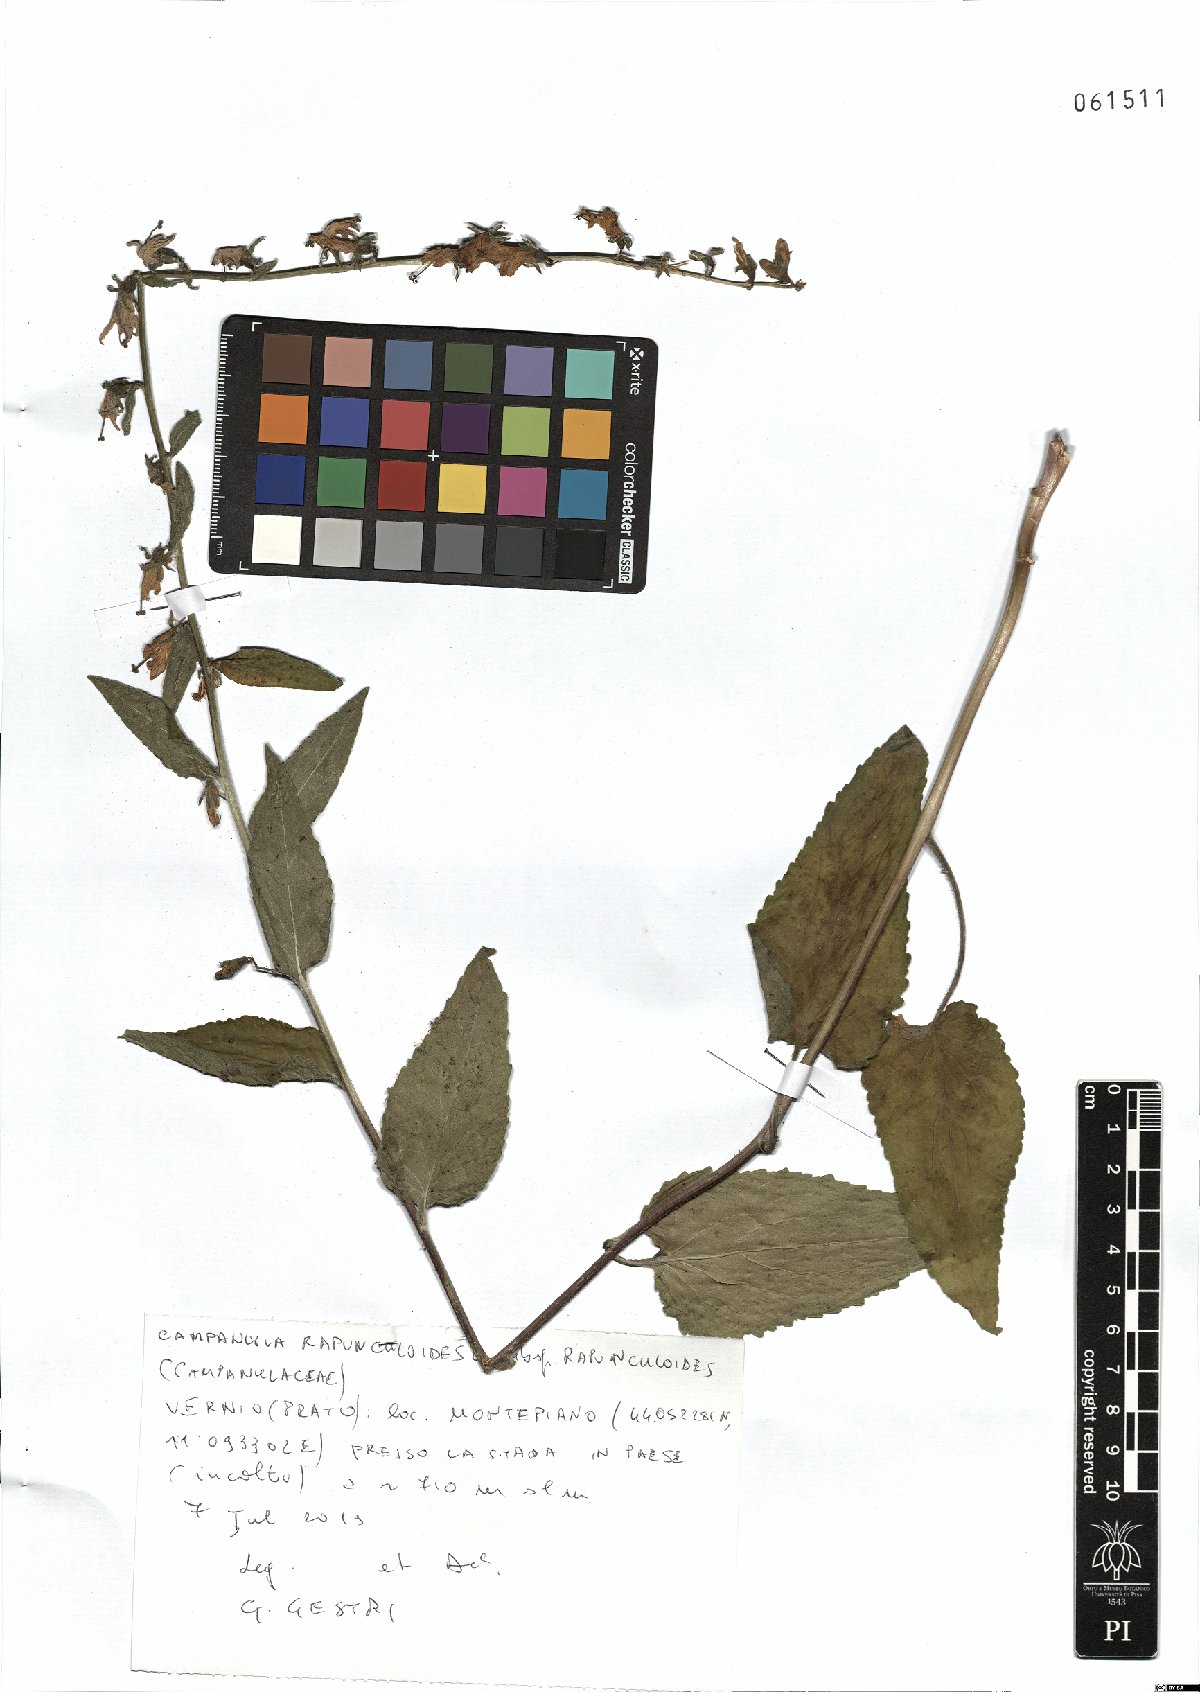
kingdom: Plantae
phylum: Tracheophyta
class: Magnoliopsida
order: Asterales
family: Campanulaceae
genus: Campanula
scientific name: Campanula rapunculoides
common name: Creeping bellflower
